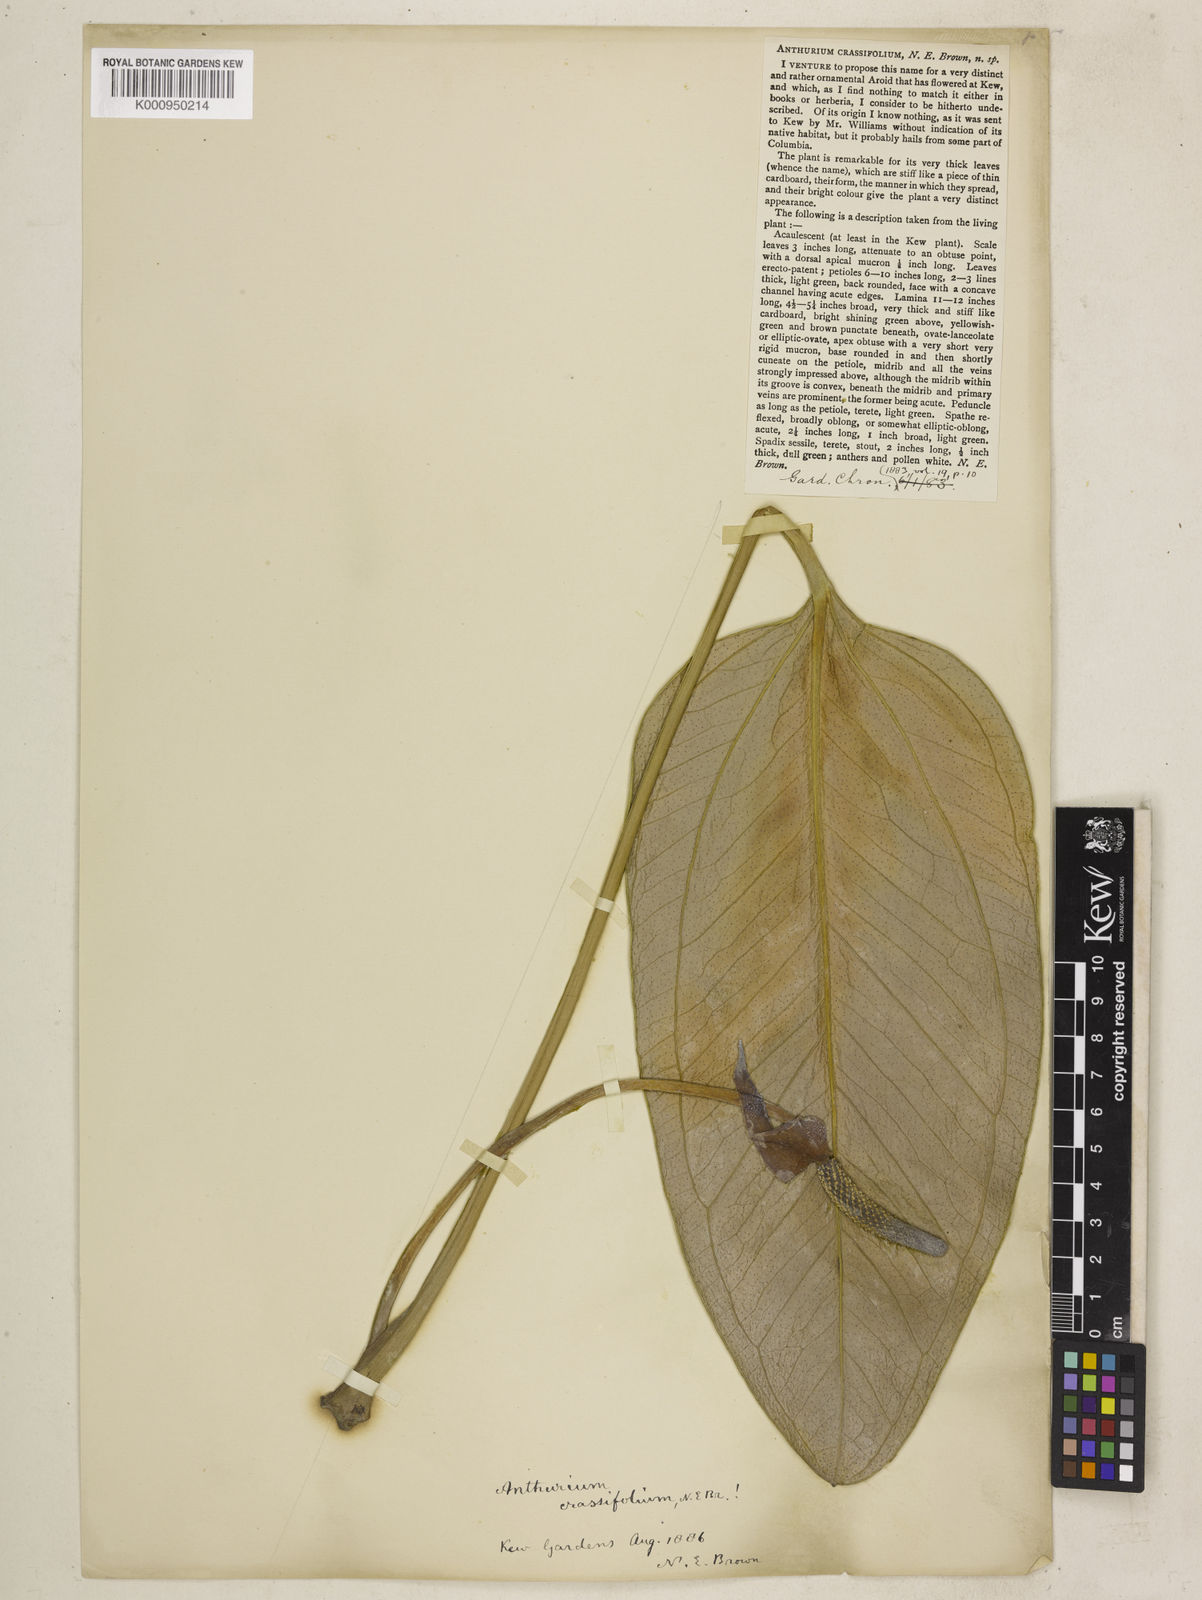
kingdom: Plantae
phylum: Tracheophyta
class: Liliopsida
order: Alismatales
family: Araceae
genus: Anthurium
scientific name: Anthurium crassifolium
